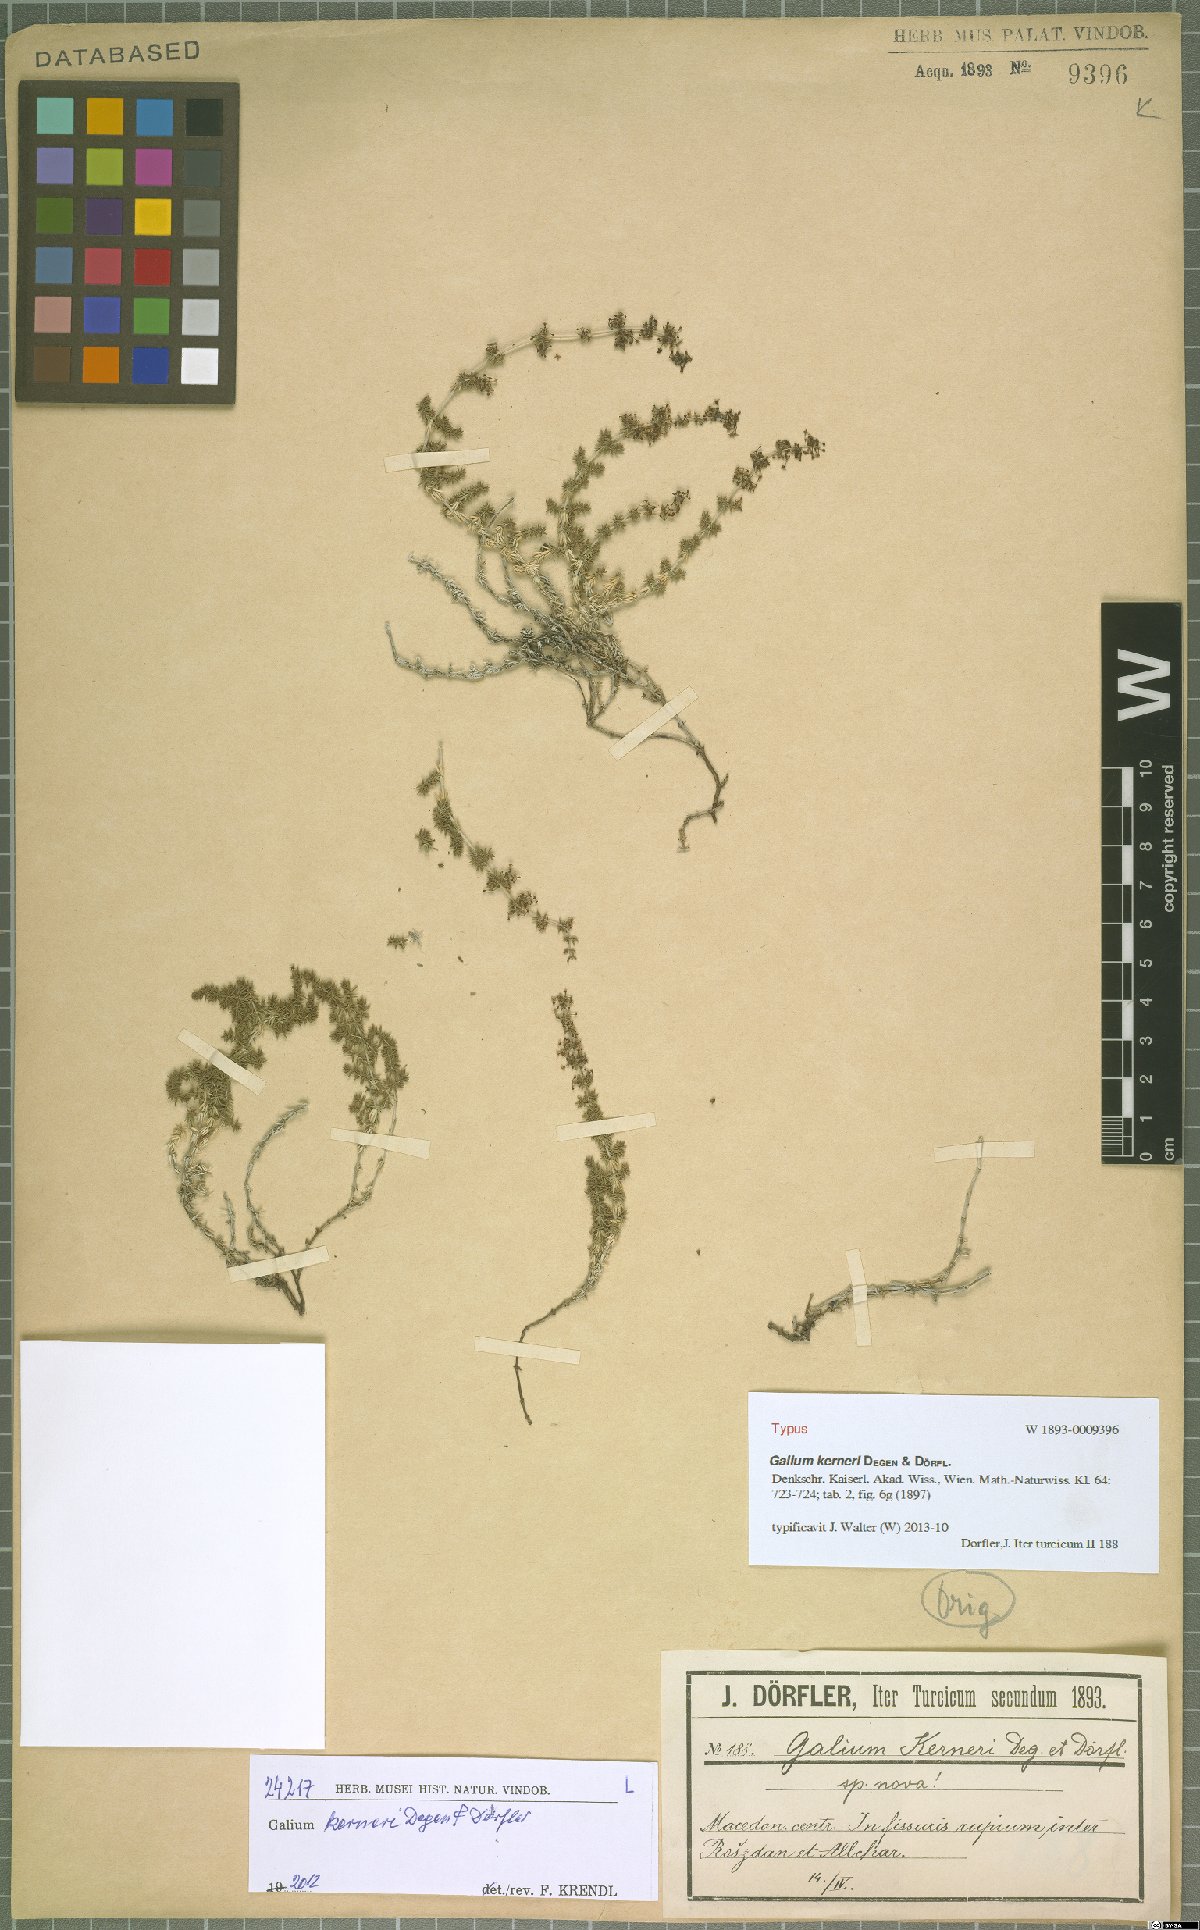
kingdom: Plantae
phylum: Tracheophyta
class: Magnoliopsida
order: Gentianales
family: Rubiaceae
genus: Galium
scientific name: Galium kerneri
